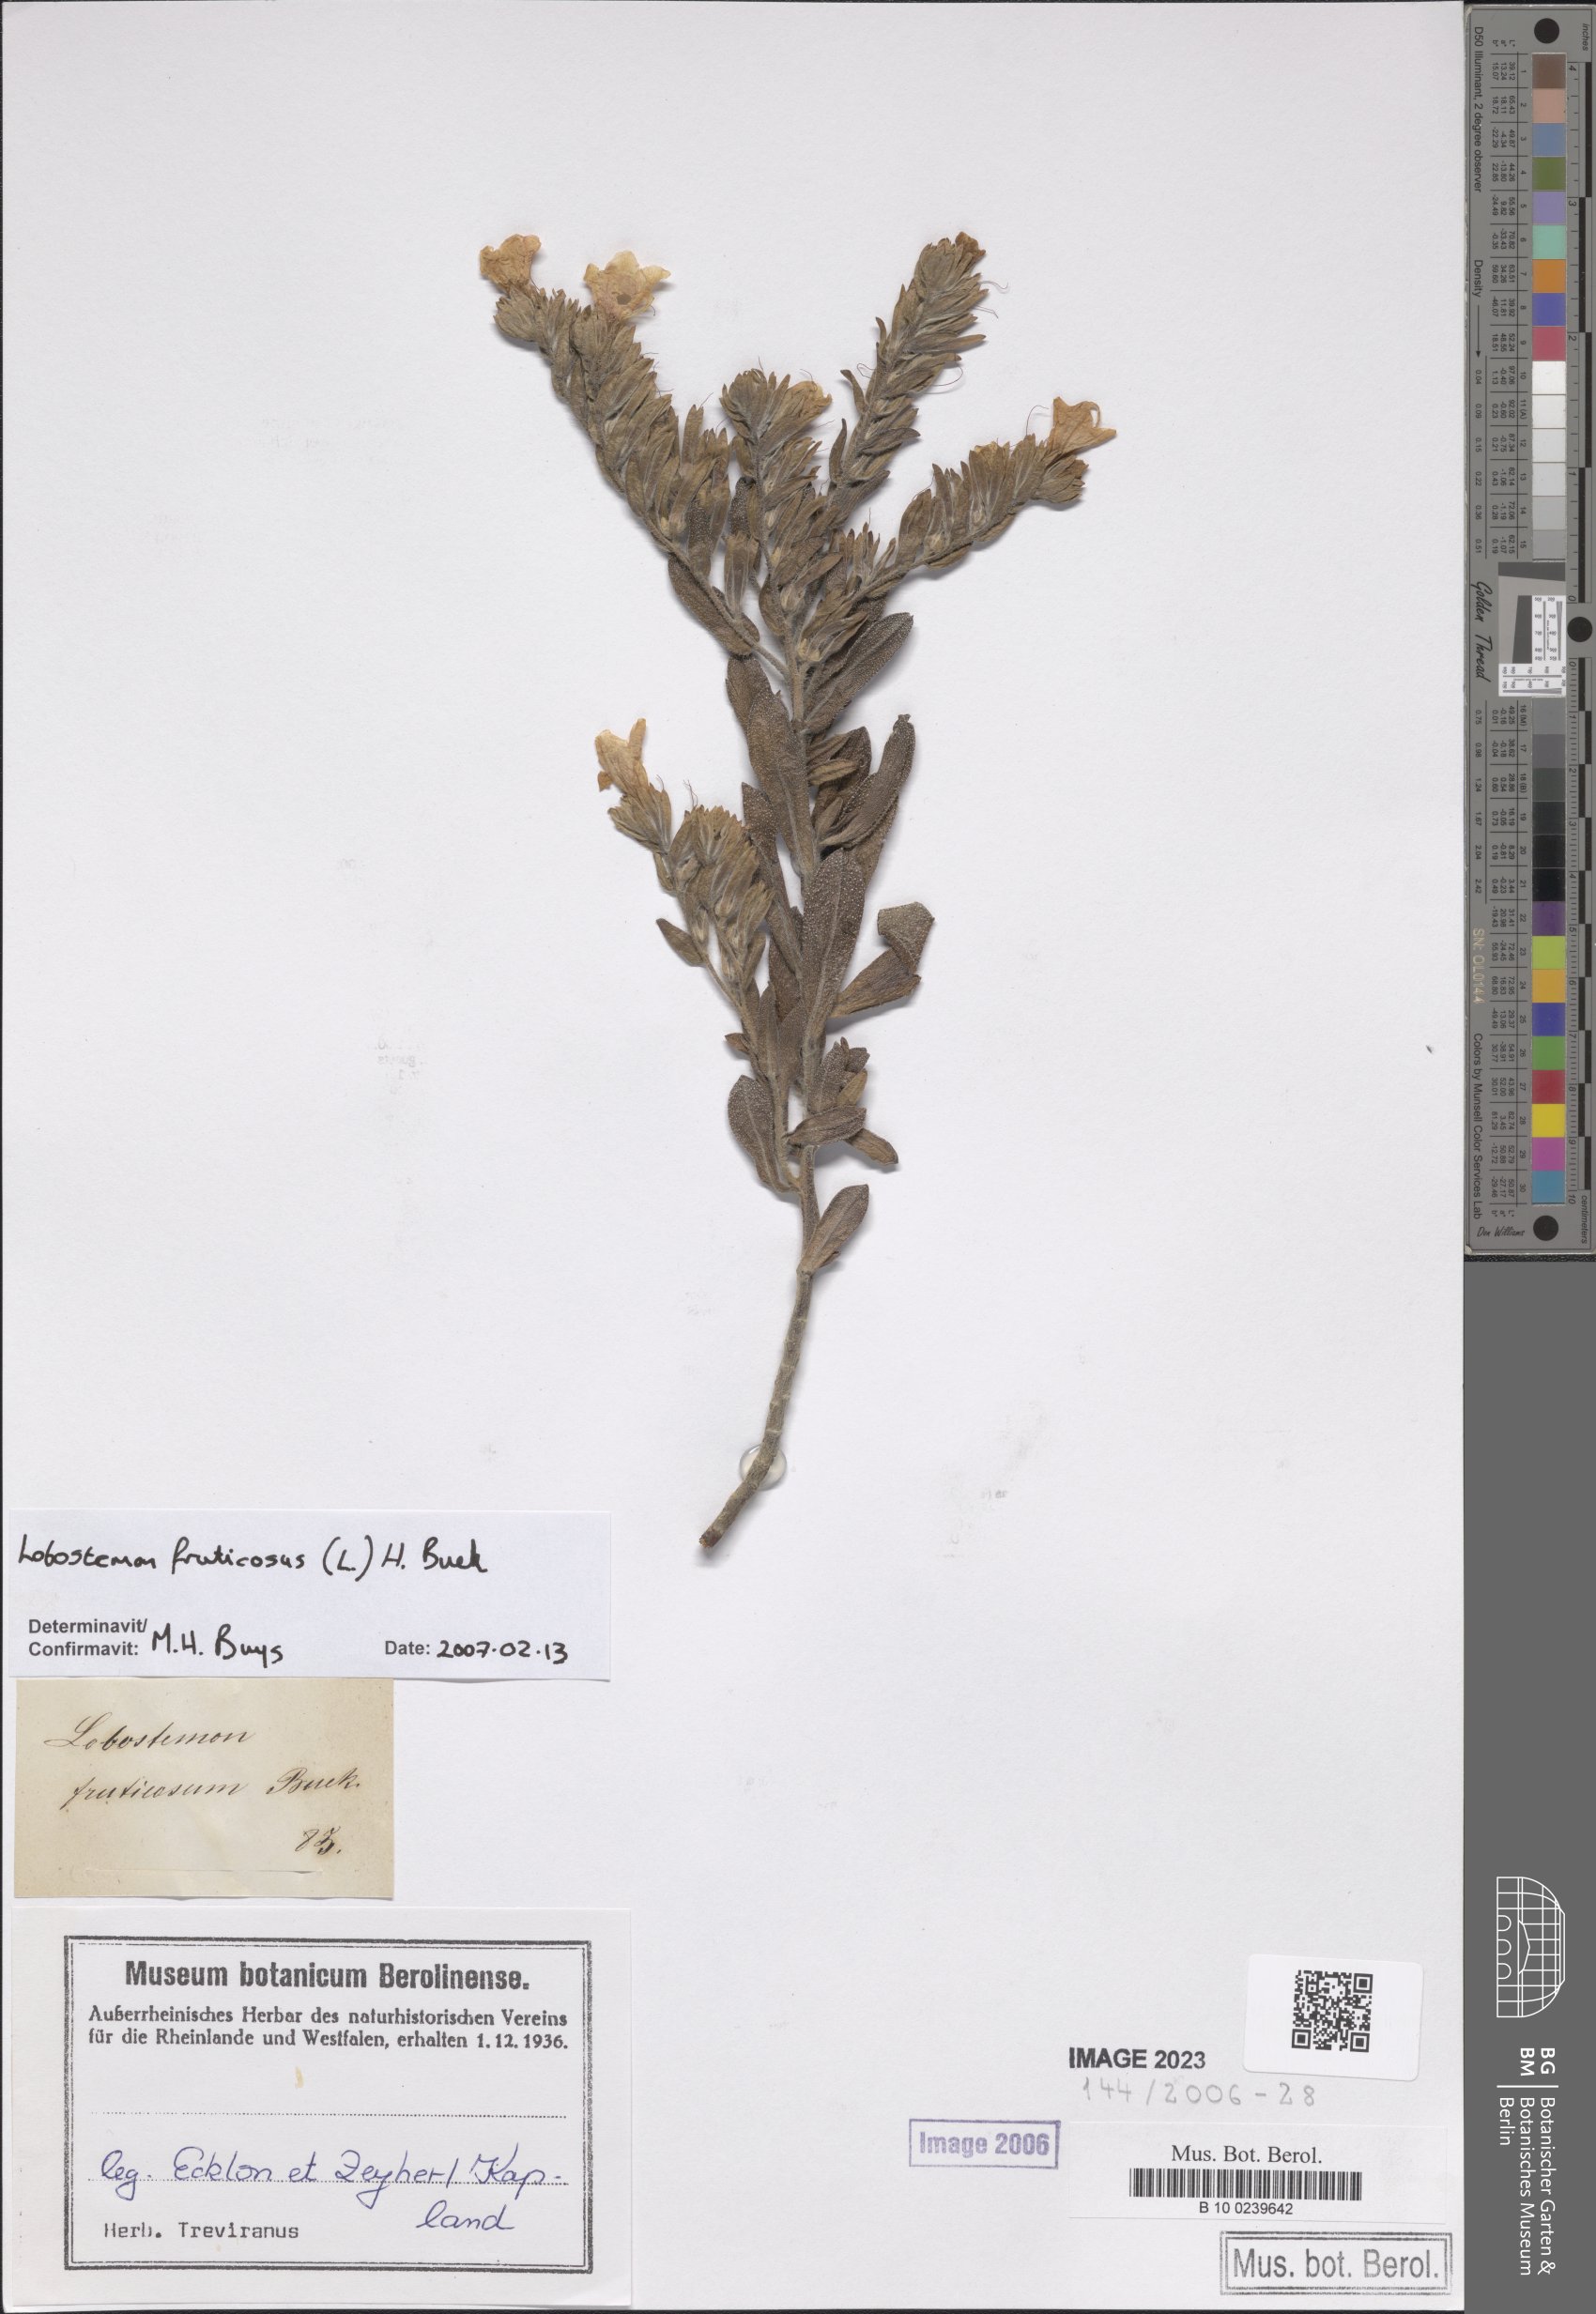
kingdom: Plantae
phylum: Tracheophyta
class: Magnoliopsida
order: Boraginales
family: Boraginaceae
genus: Lobostemon
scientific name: Lobostemon fruticosus
